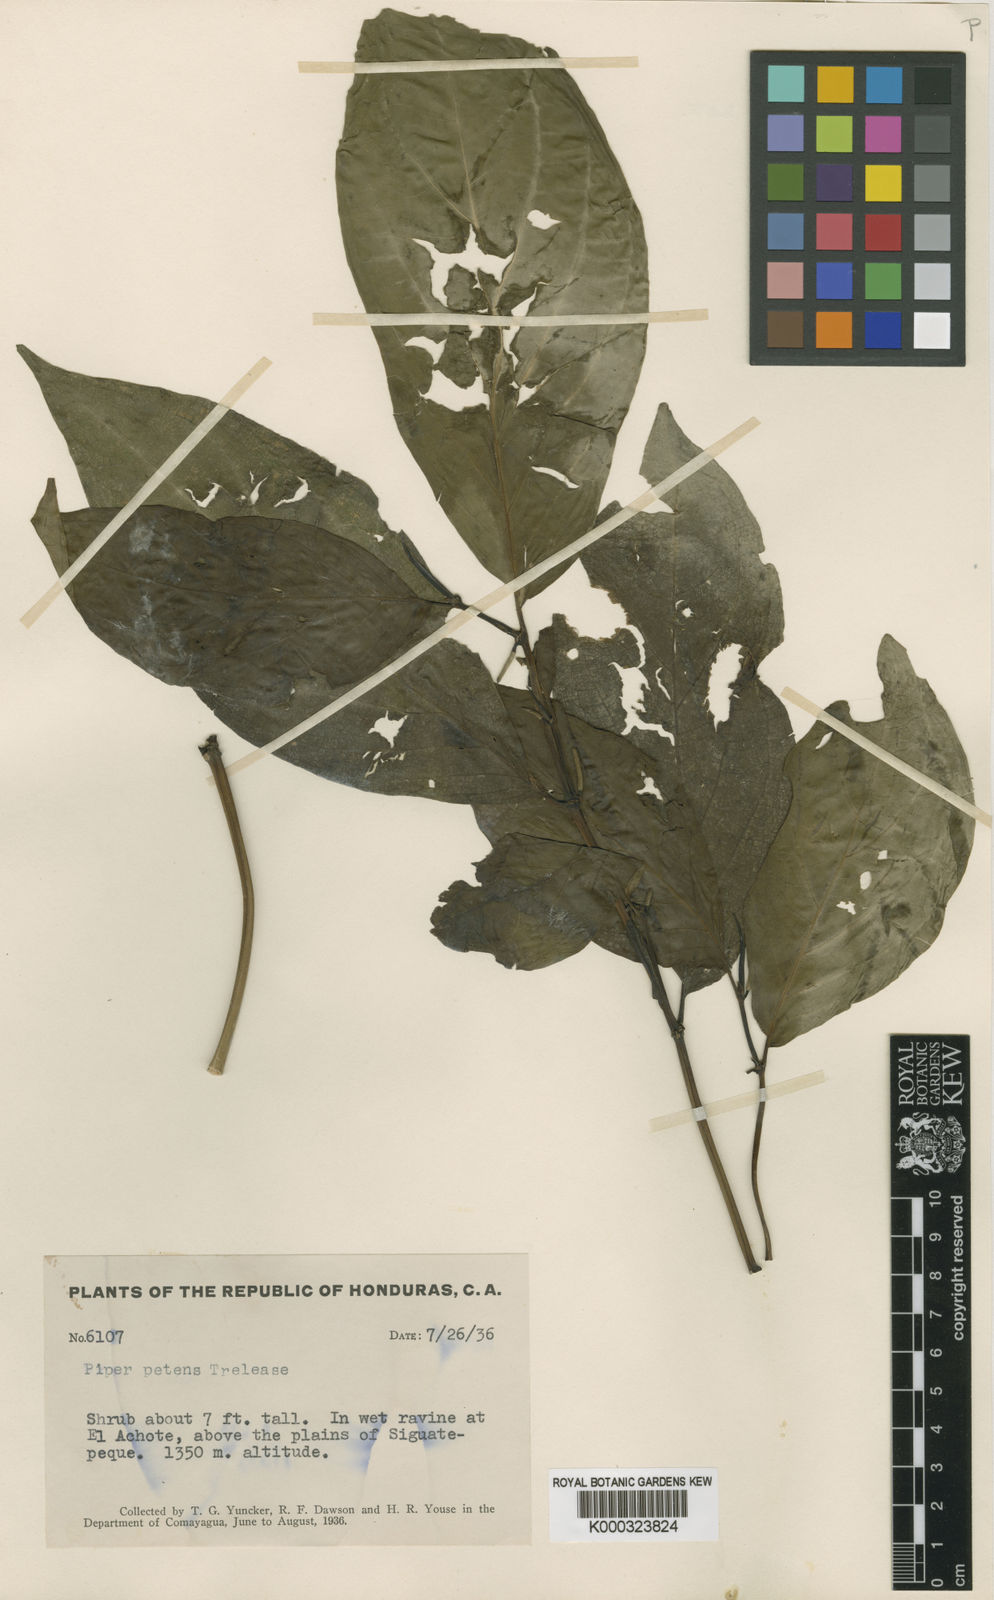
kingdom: Plantae
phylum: Tracheophyta
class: Magnoliopsida
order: Piperales
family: Piperaceae
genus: Piper
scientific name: Piper colonense
